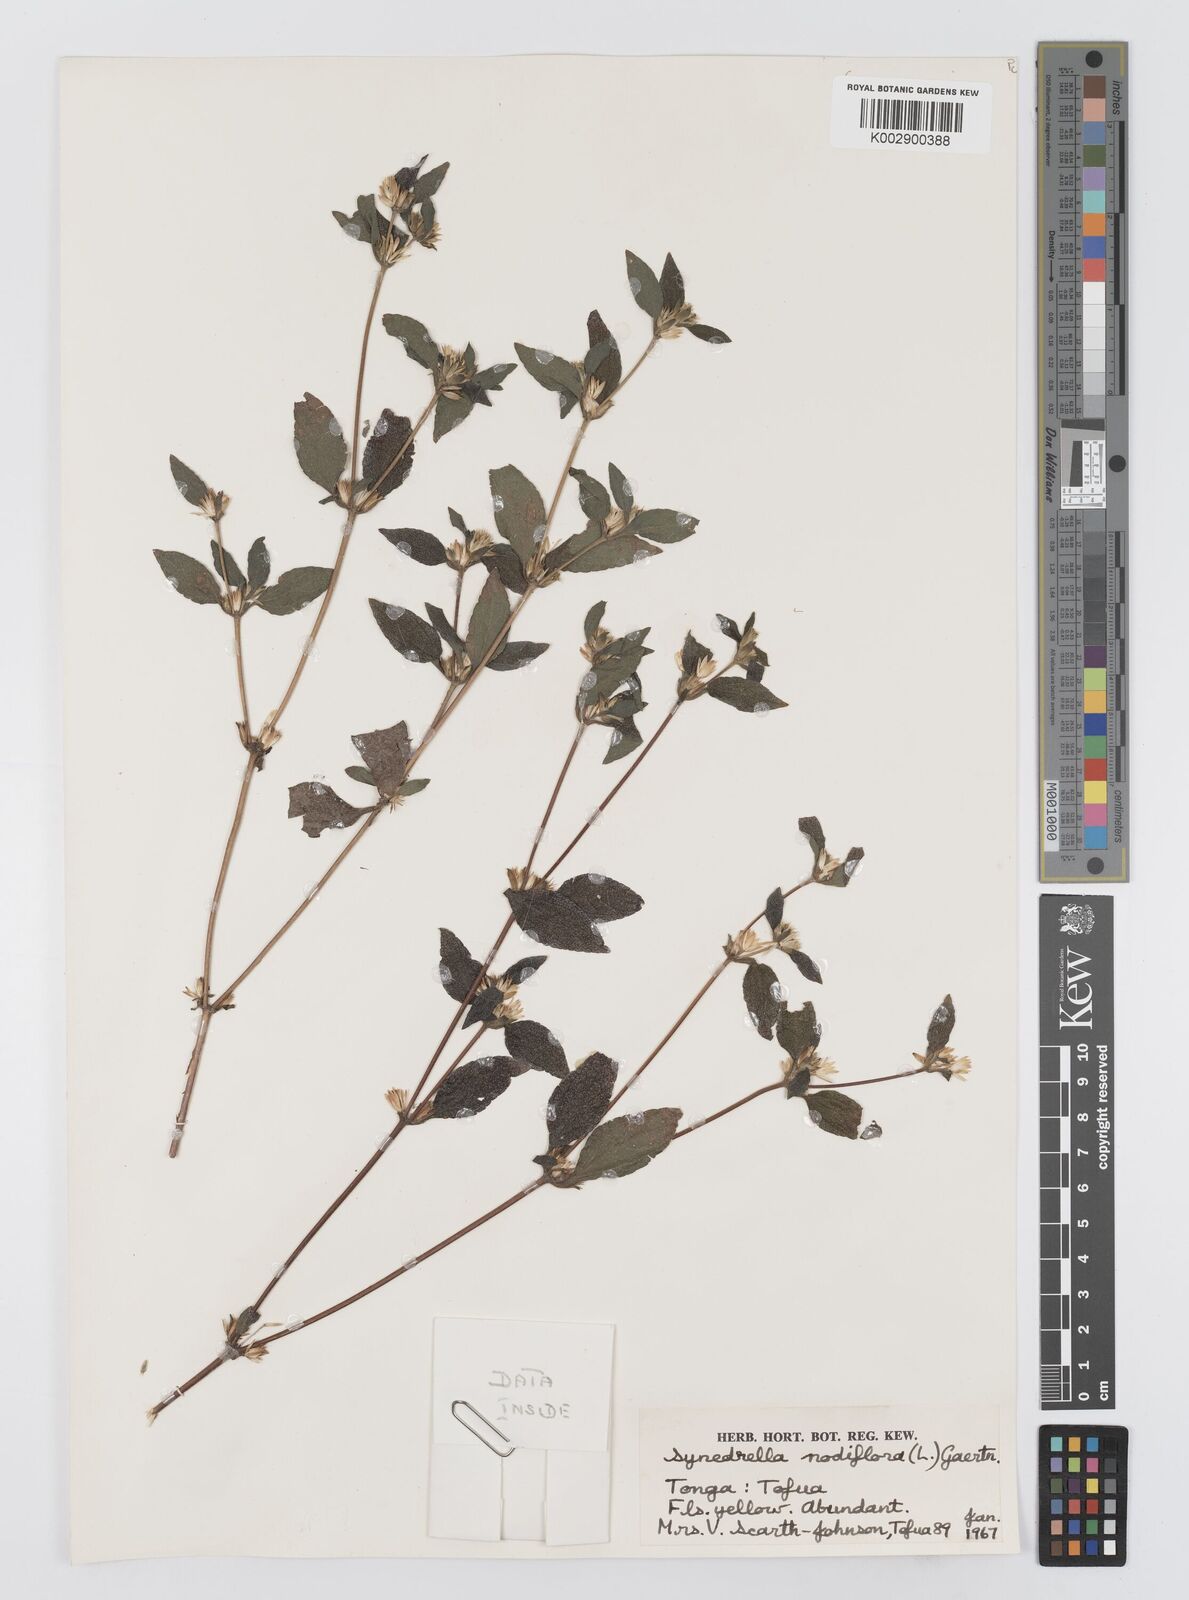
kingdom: Plantae
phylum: Tracheophyta
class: Magnoliopsida
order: Asterales
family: Asteraceae
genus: Synedrella
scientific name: Synedrella nodiflora
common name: Nodeweed
